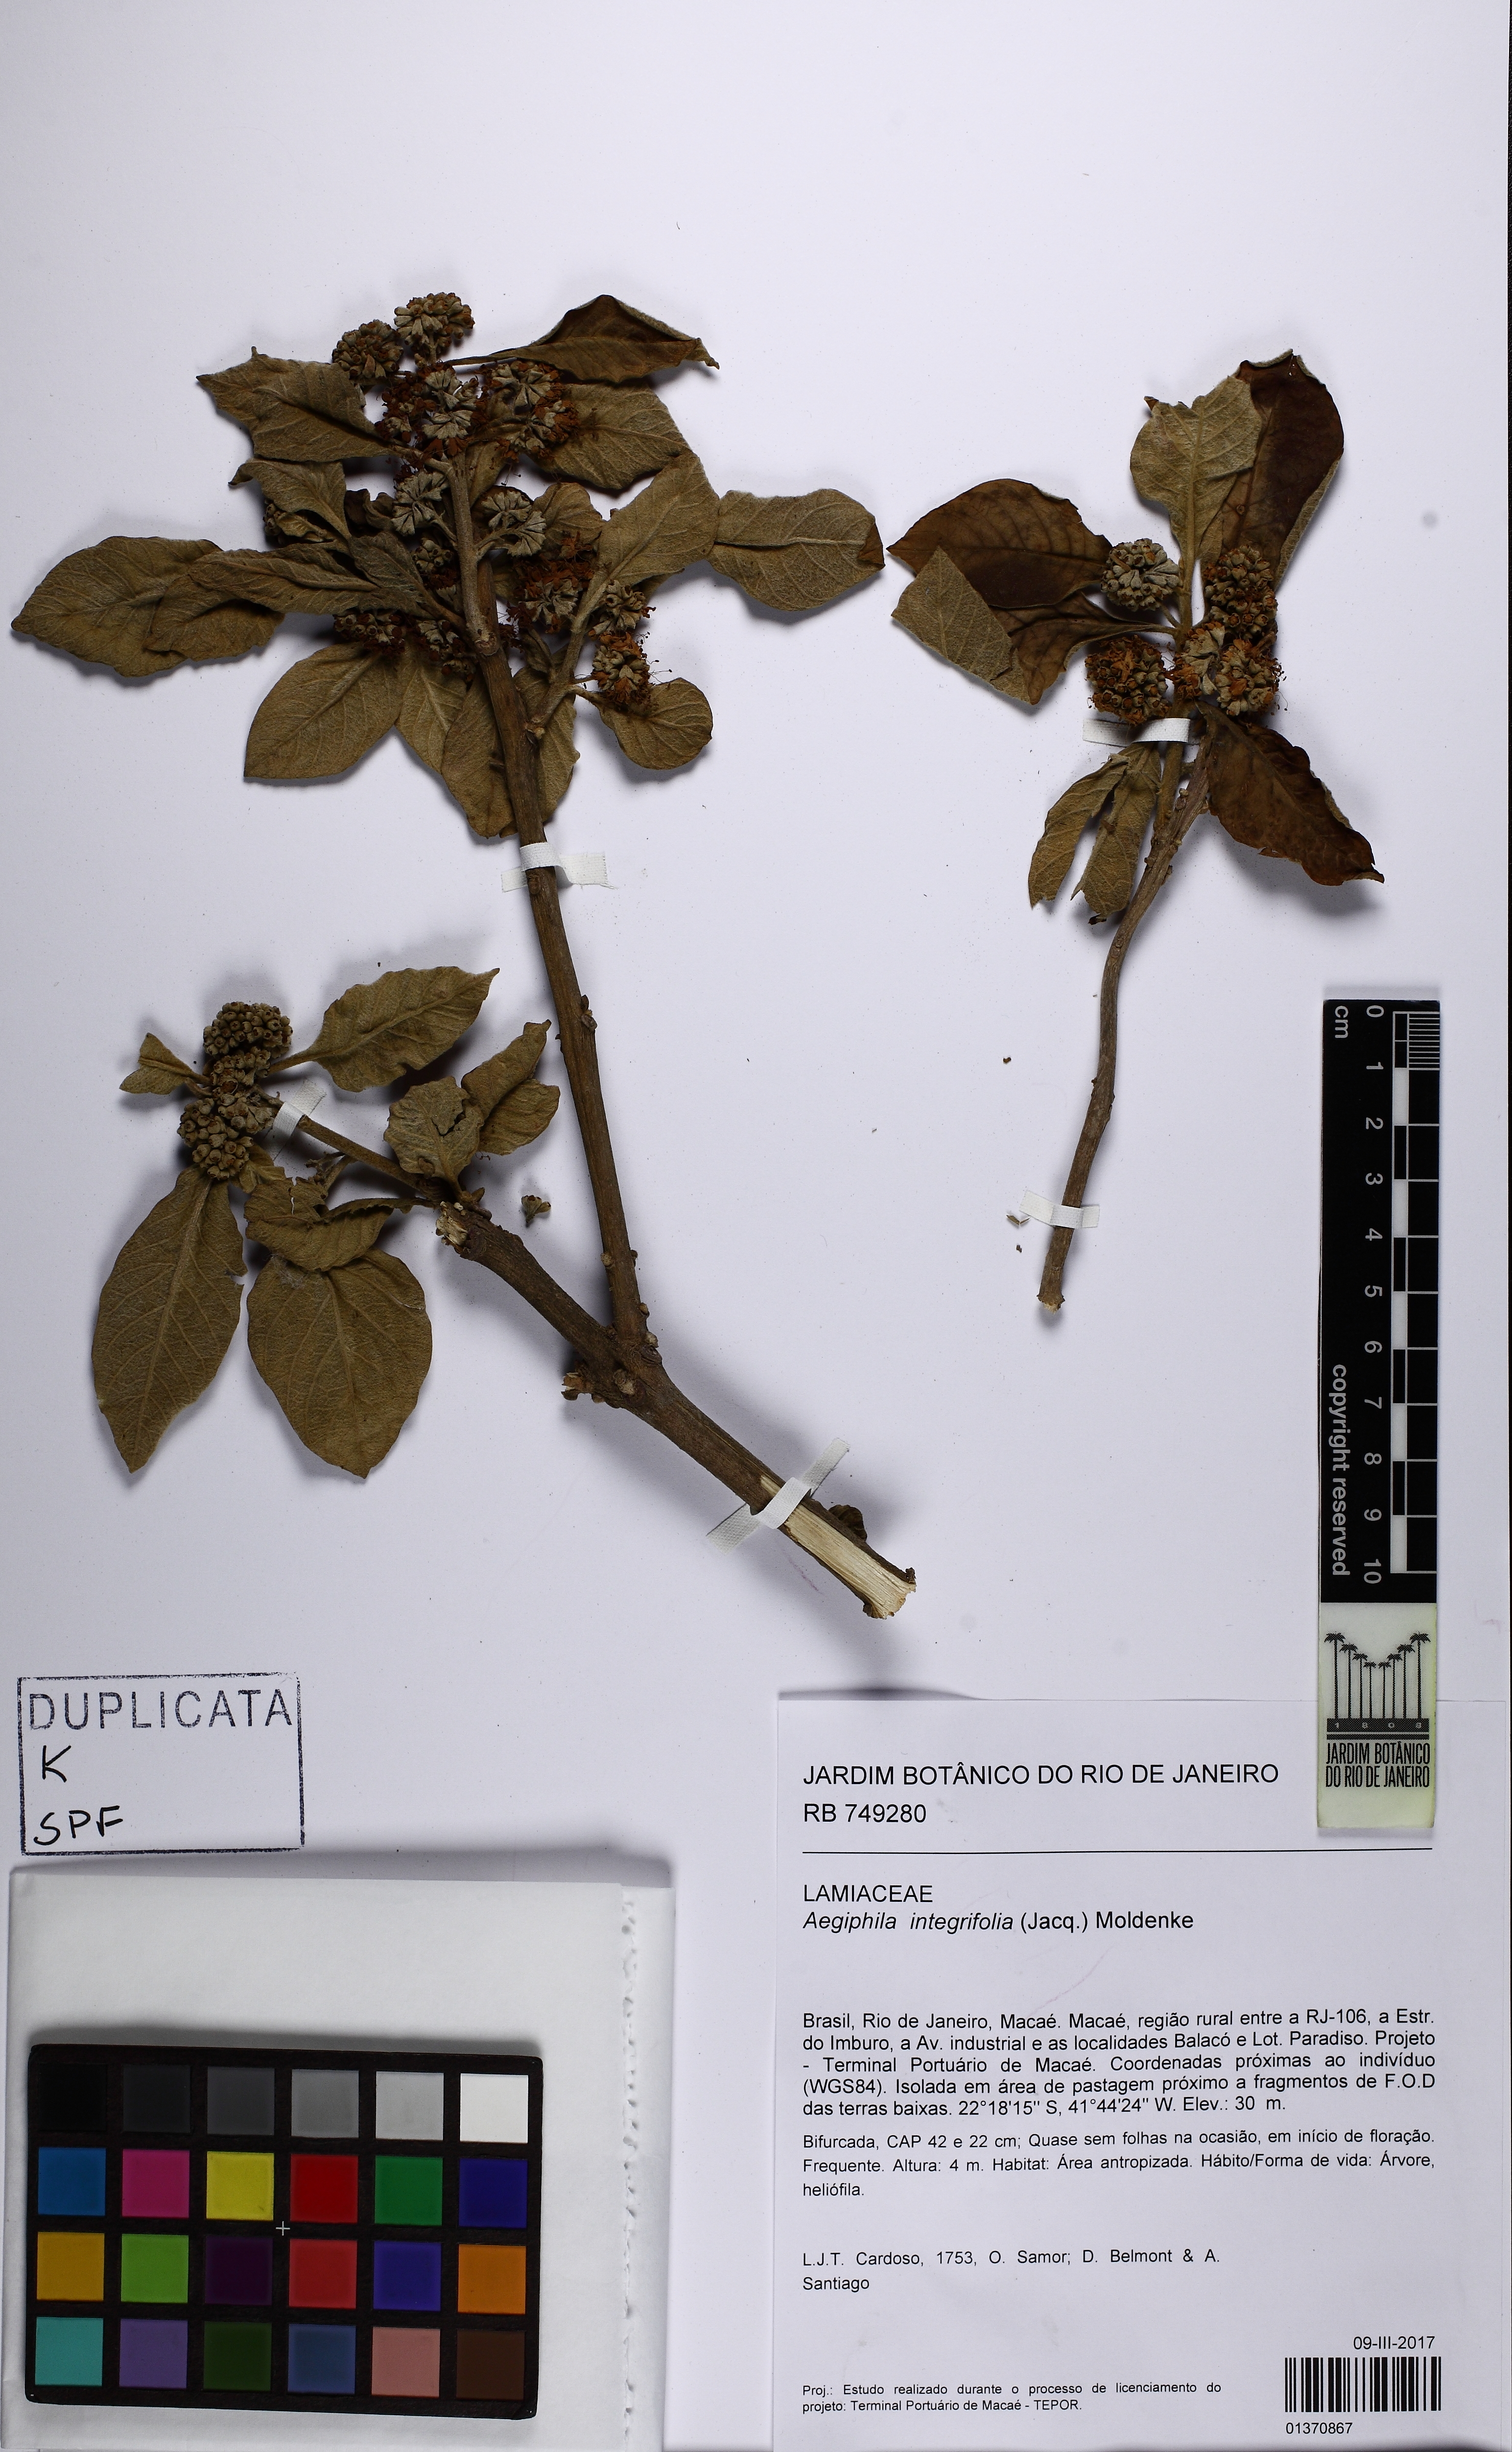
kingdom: Plantae
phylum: Tracheophyta
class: Magnoliopsida
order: Lamiales
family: Lamiaceae
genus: Aegiphila
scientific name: Aegiphila integrifolia
